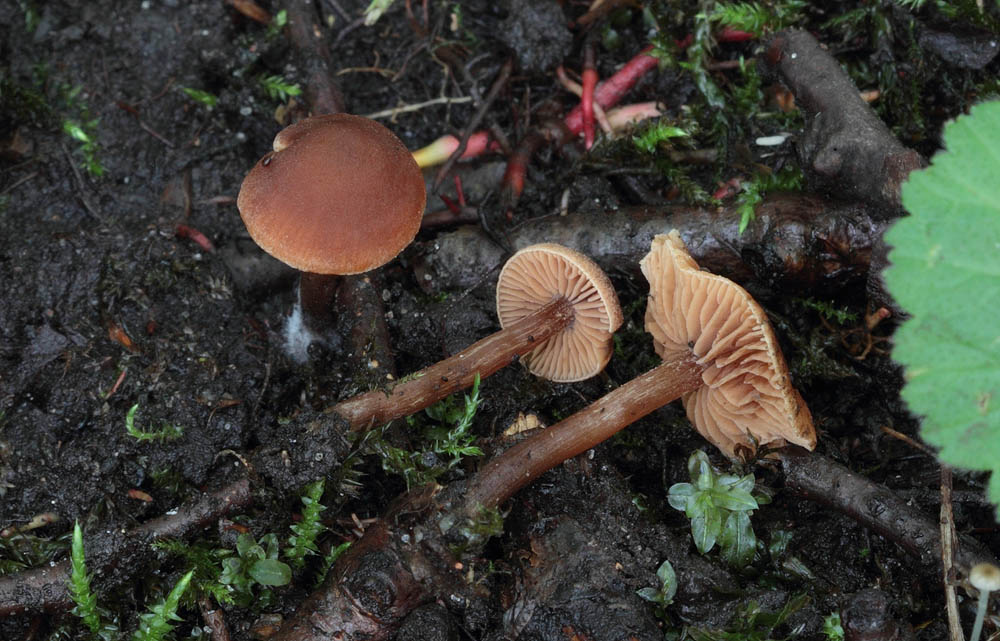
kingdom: Fungi
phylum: Basidiomycota
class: Agaricomycetes
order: Agaricales
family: Hymenogastraceae
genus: Naucoria
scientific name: Naucoria sphagneti
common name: lysrandet knaphat
